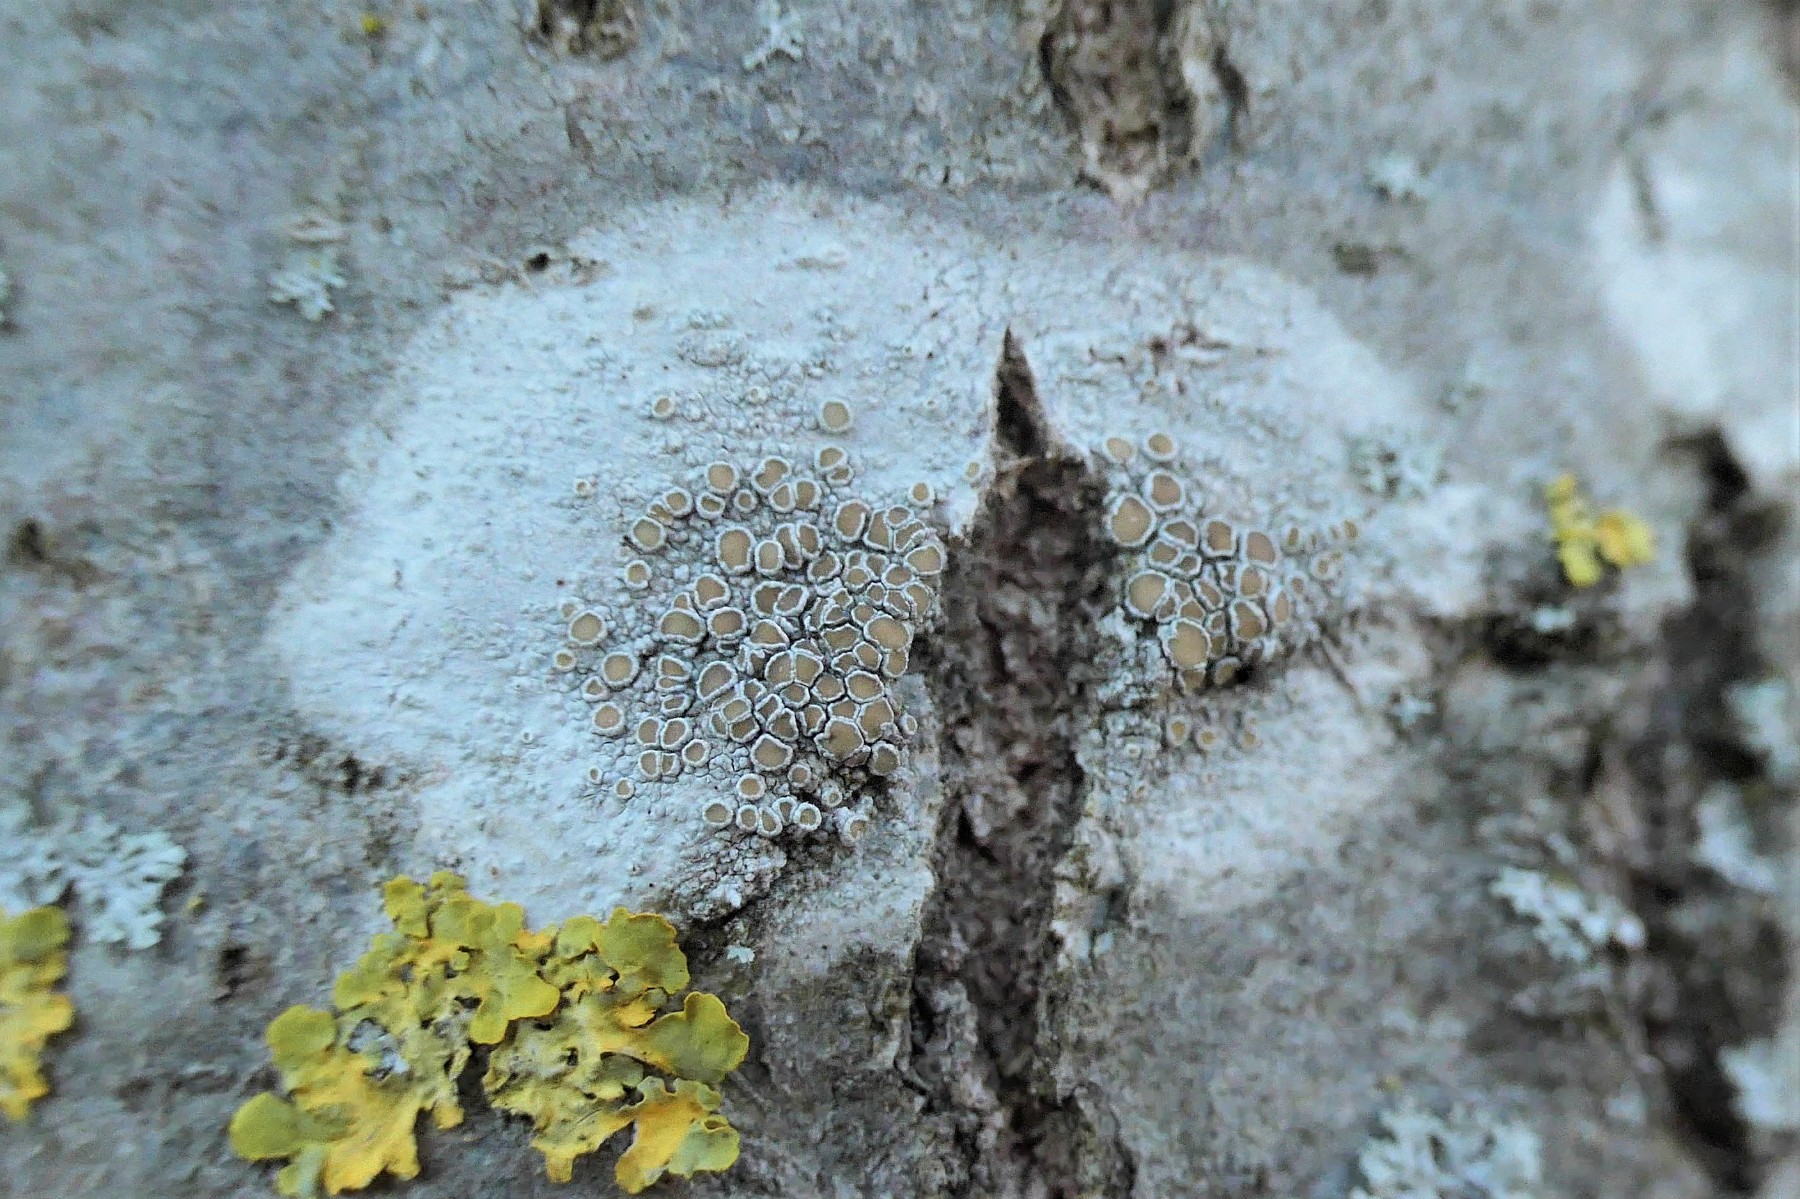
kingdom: Fungi
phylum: Ascomycota
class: Lecanoromycetes
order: Lecanorales
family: Lecanoraceae
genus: Lecanora
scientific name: Lecanora chlarotera
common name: brun kantskivelav
